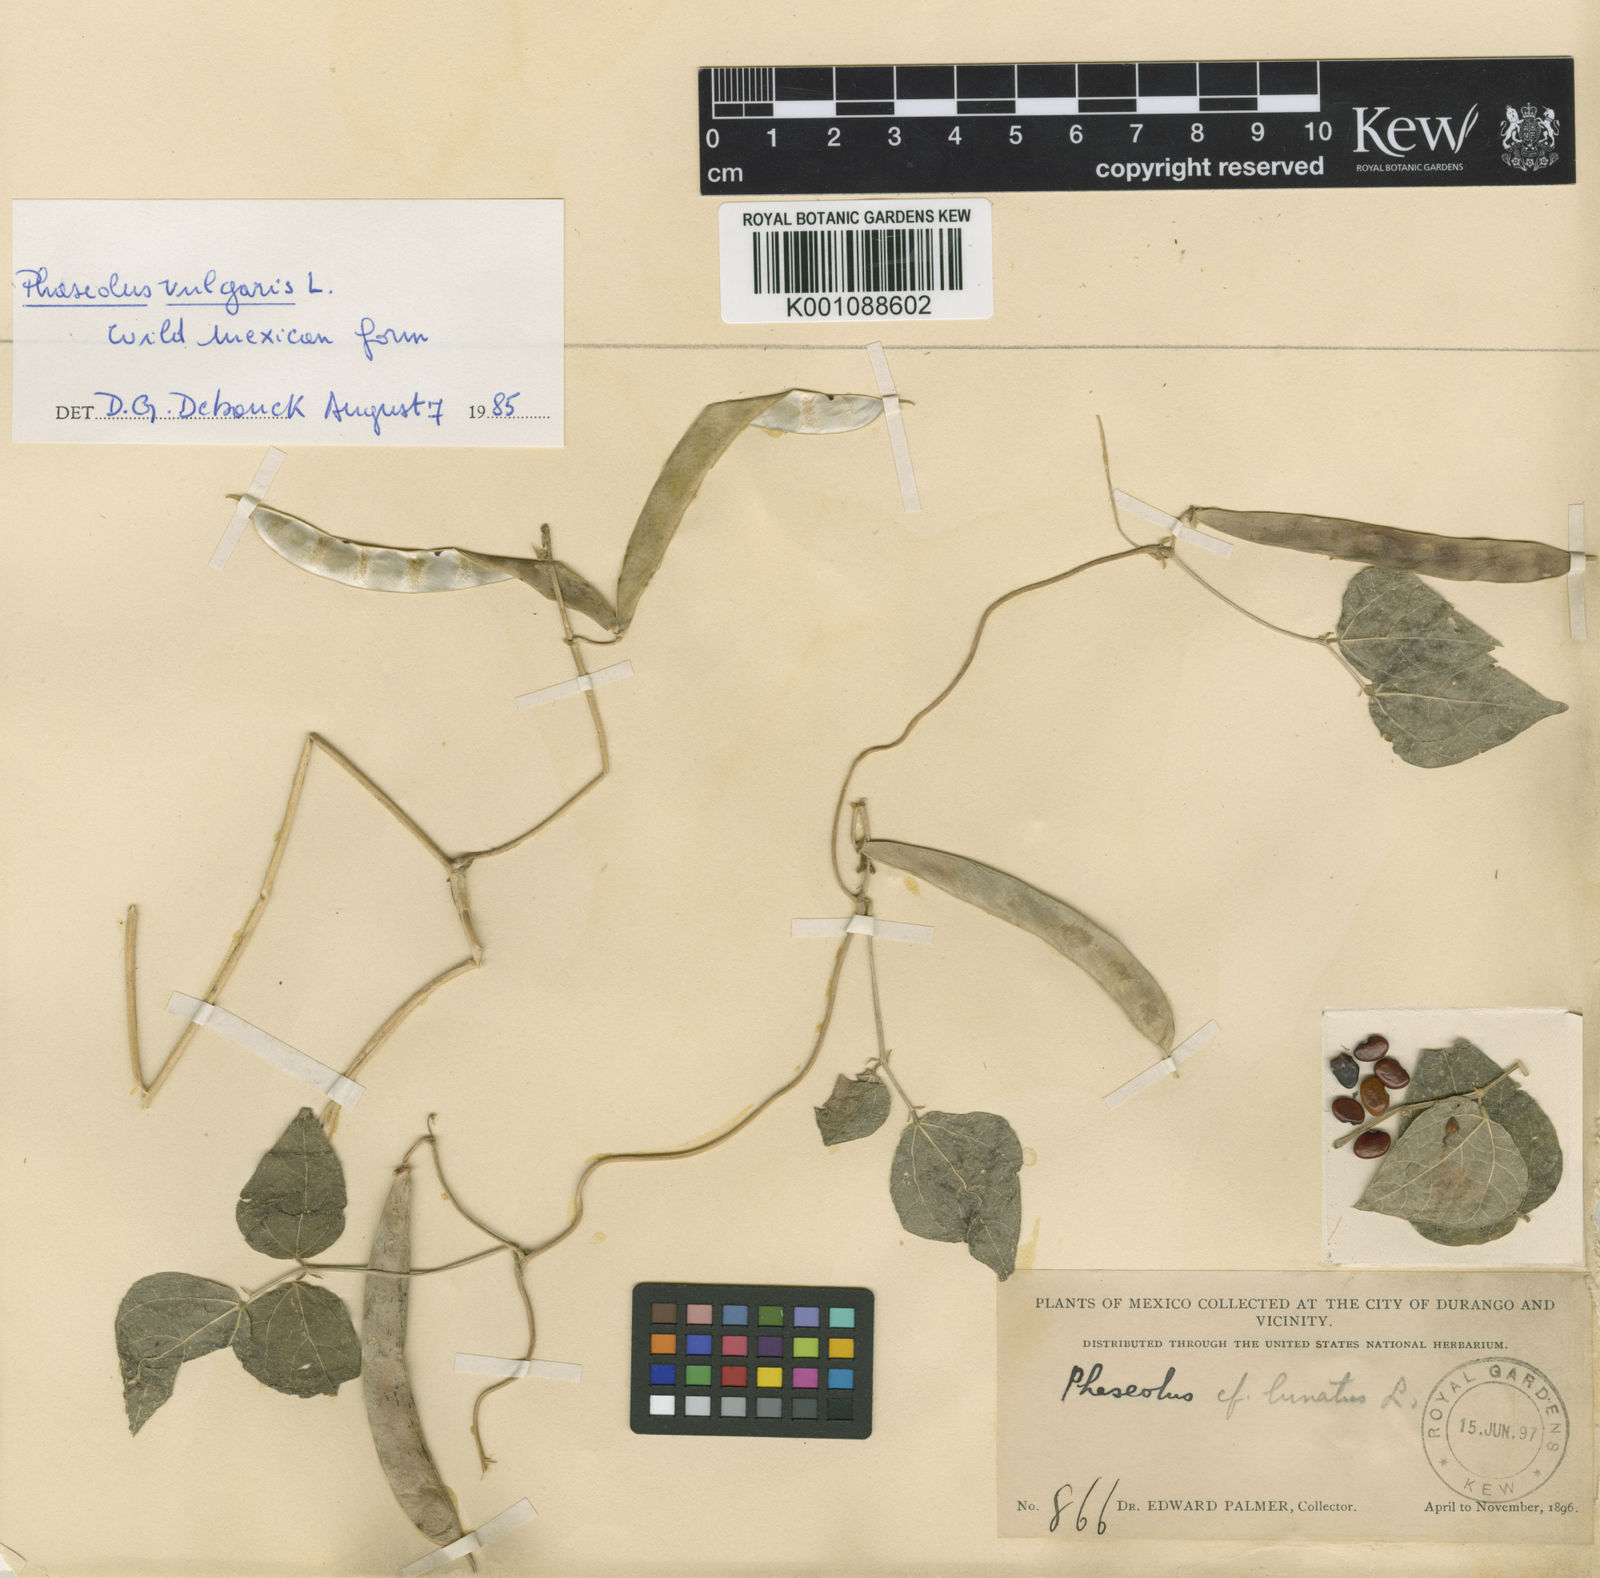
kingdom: Plantae
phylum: Tracheophyta
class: Magnoliopsida
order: Fabales
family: Fabaceae
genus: Phaseolus
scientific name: Phaseolus vulgaris
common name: Bean
